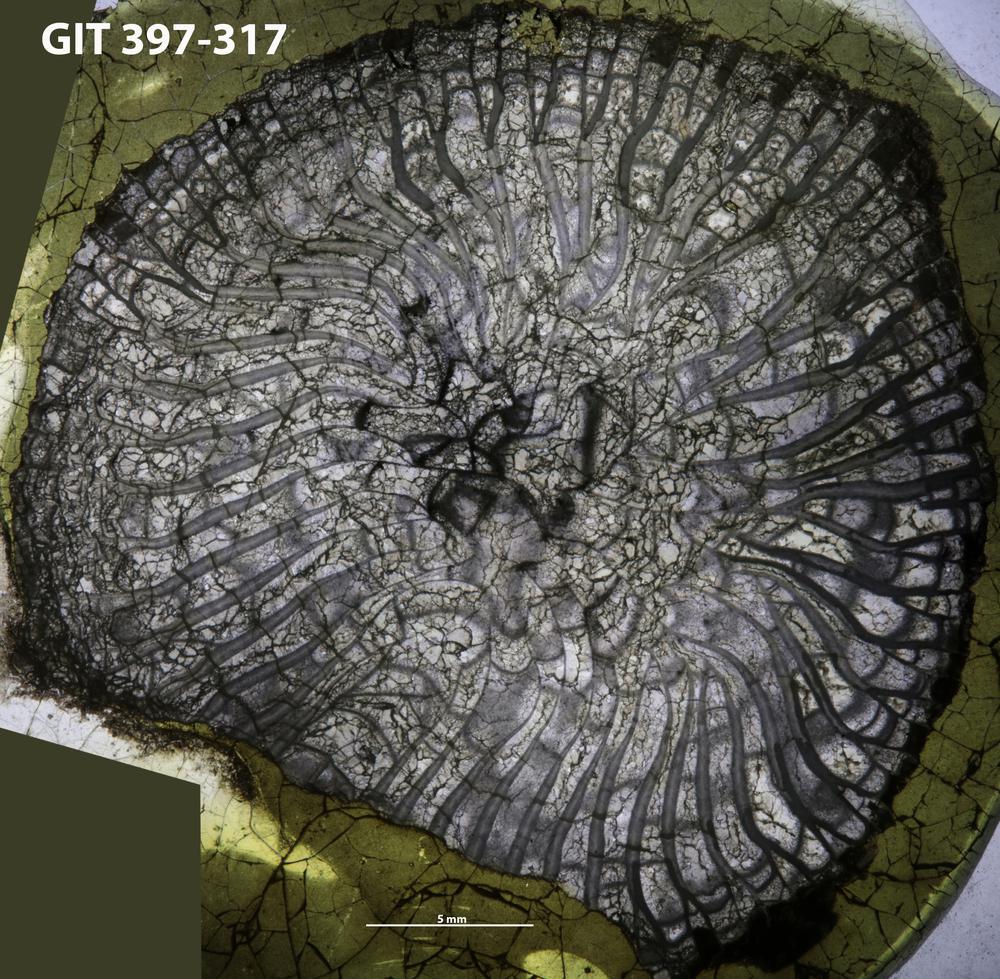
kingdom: Animalia
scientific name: Animalia
